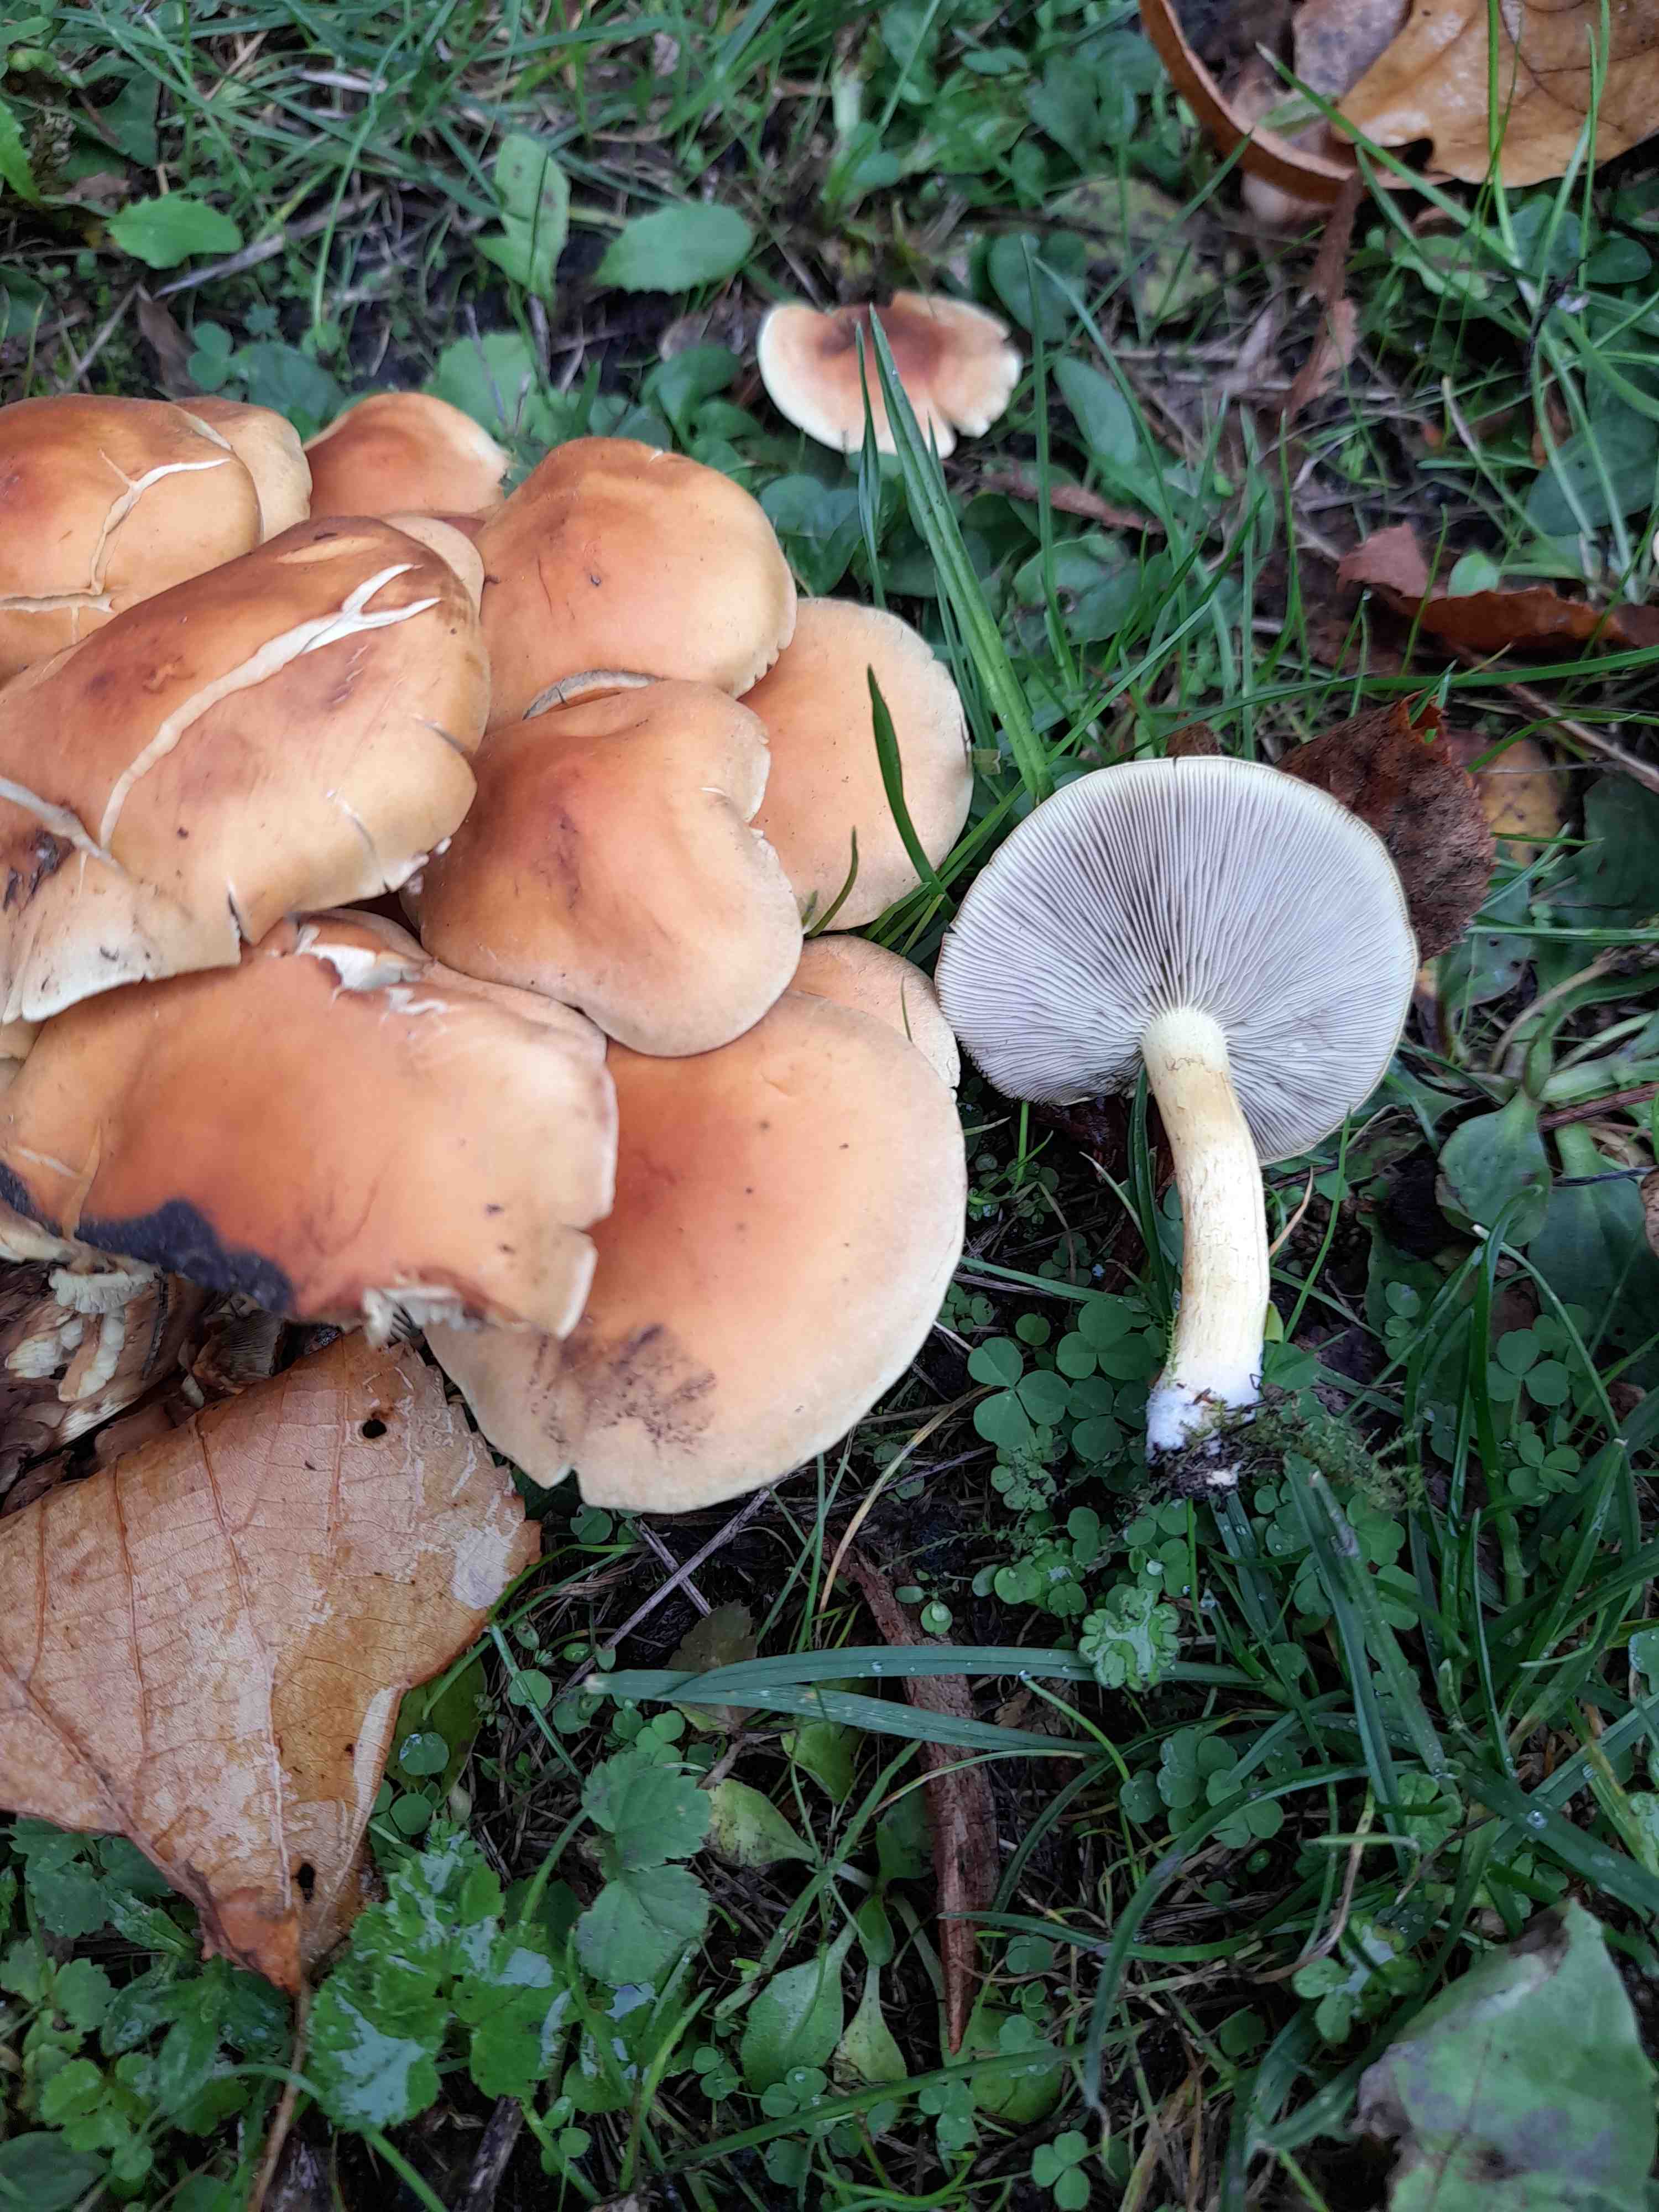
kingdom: Fungi
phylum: Basidiomycota
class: Agaricomycetes
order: Agaricales
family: Strophariaceae
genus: Hypholoma
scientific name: Hypholoma fasciculare
